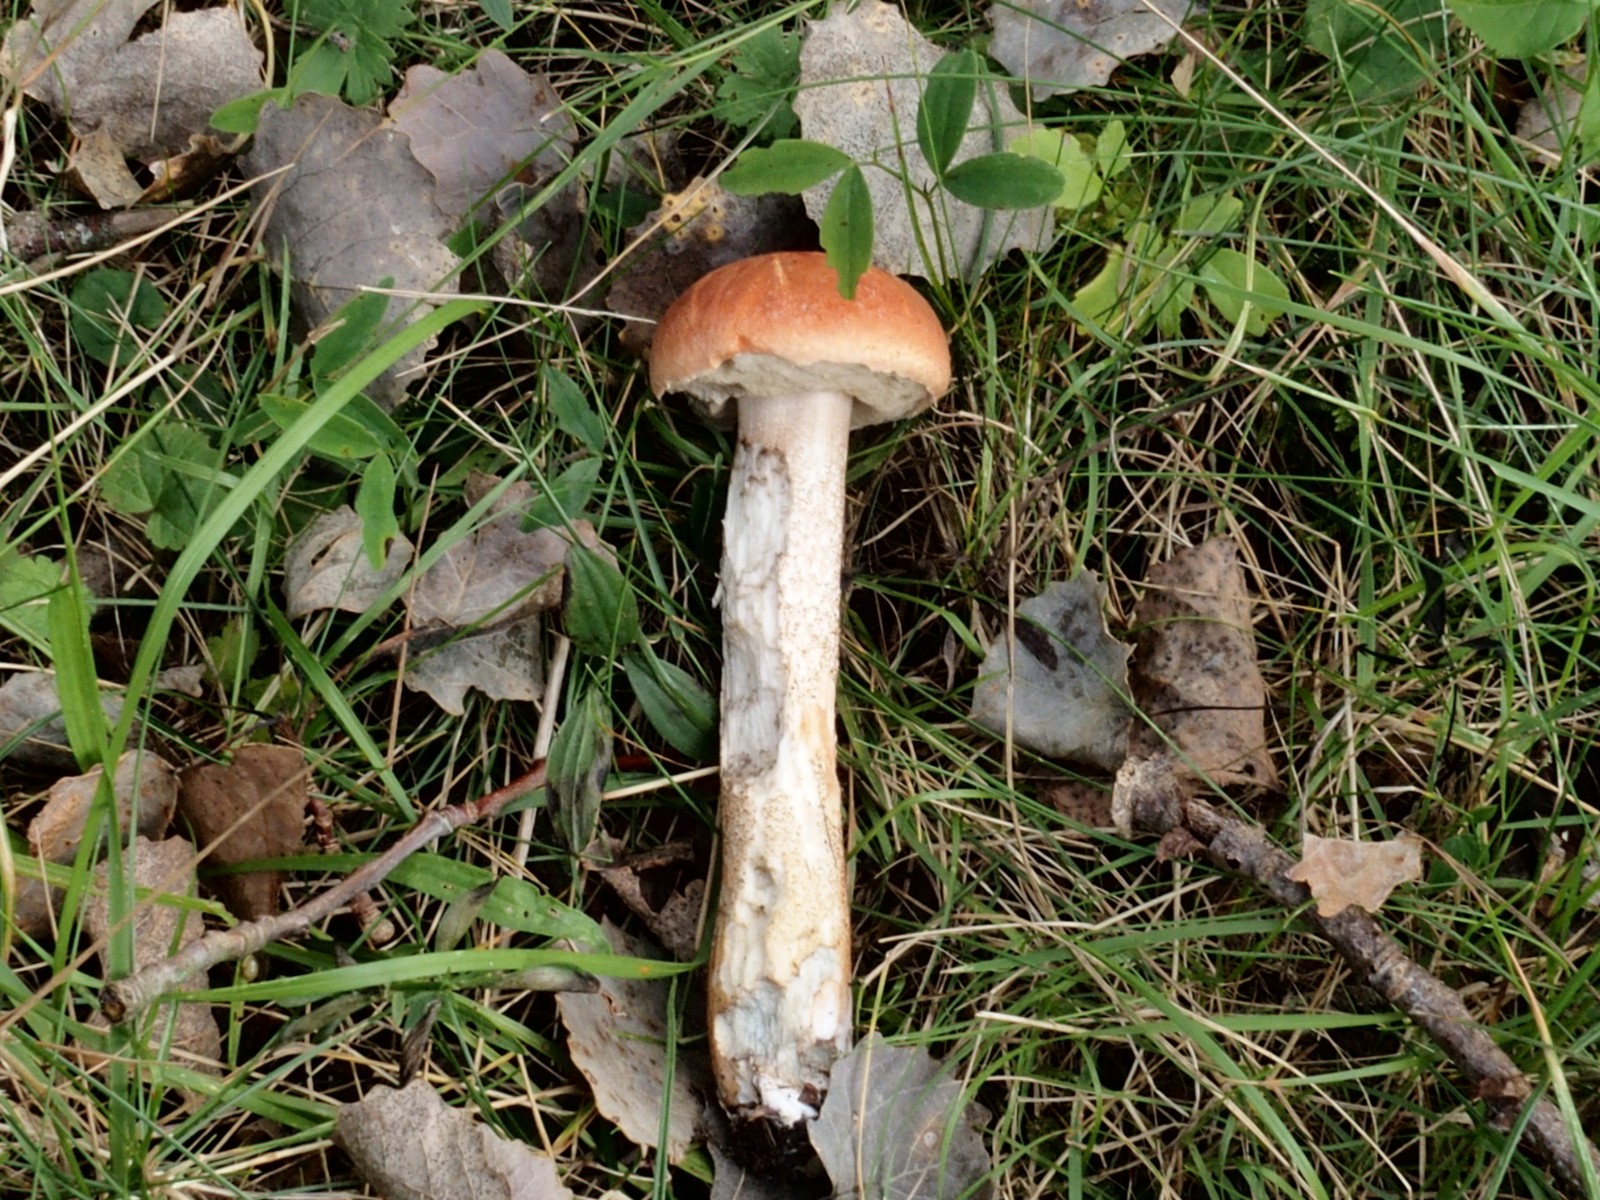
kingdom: Fungi
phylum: Basidiomycota
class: Agaricomycetes
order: Boletales
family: Boletaceae
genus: Leccinum
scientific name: Leccinum aurantiacum
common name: rustrød skælrørhat
